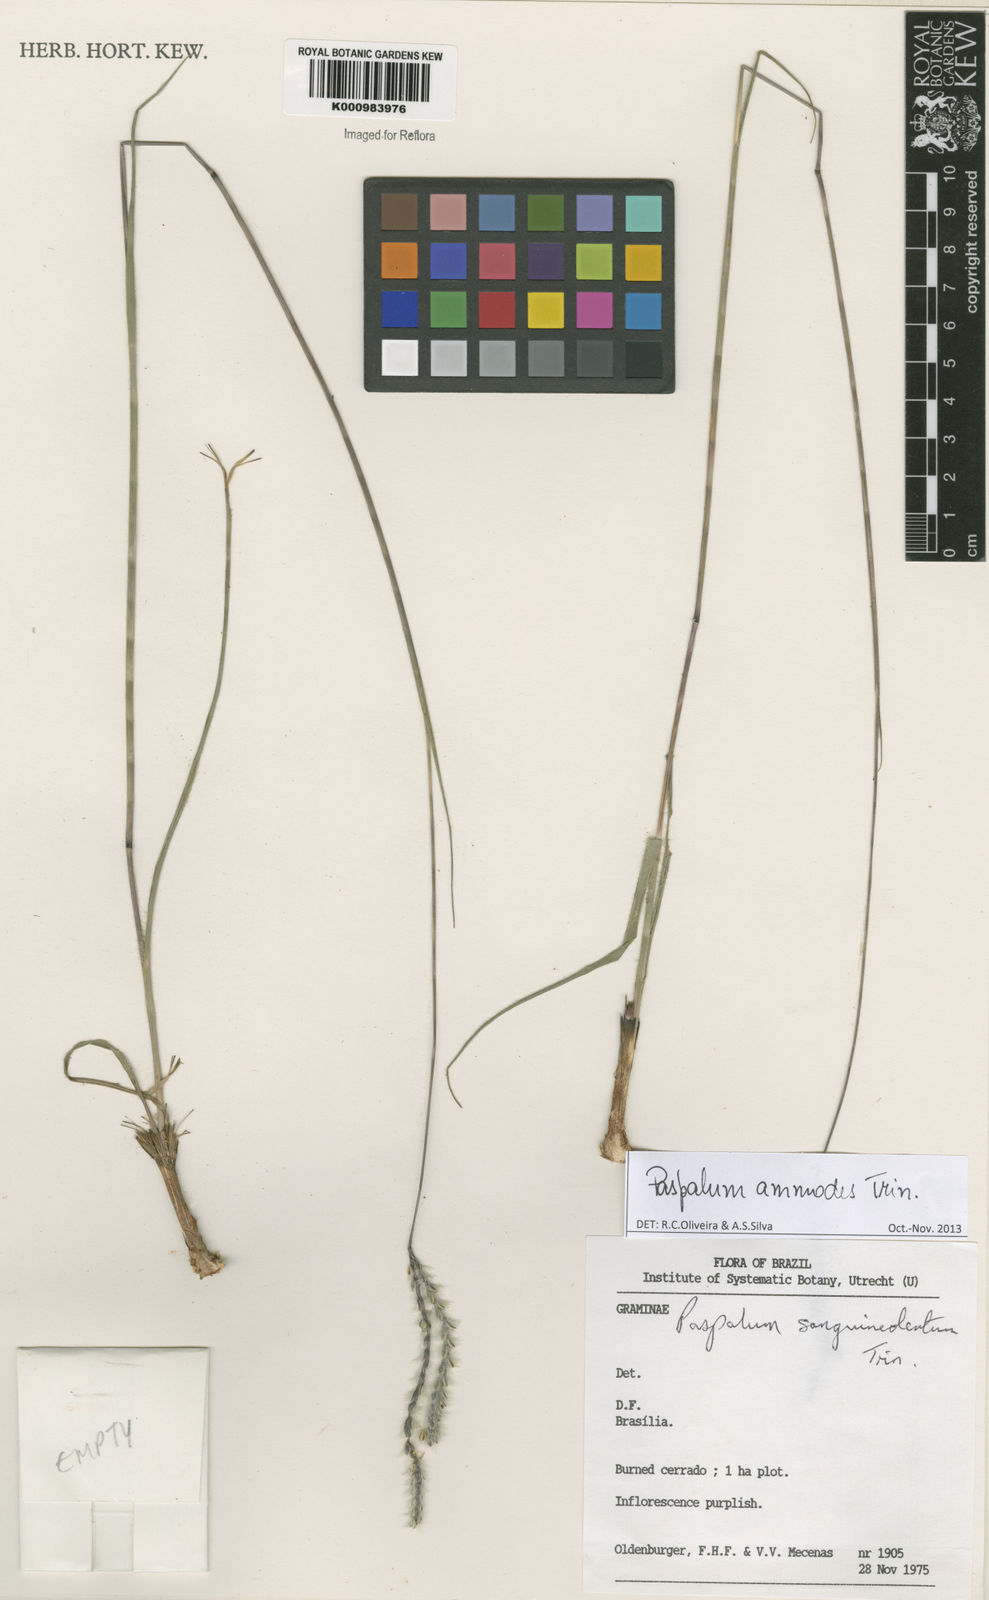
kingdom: Plantae
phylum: Tracheophyta
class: Liliopsida
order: Poales
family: Poaceae
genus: Paspalum
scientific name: Paspalum ammodes
